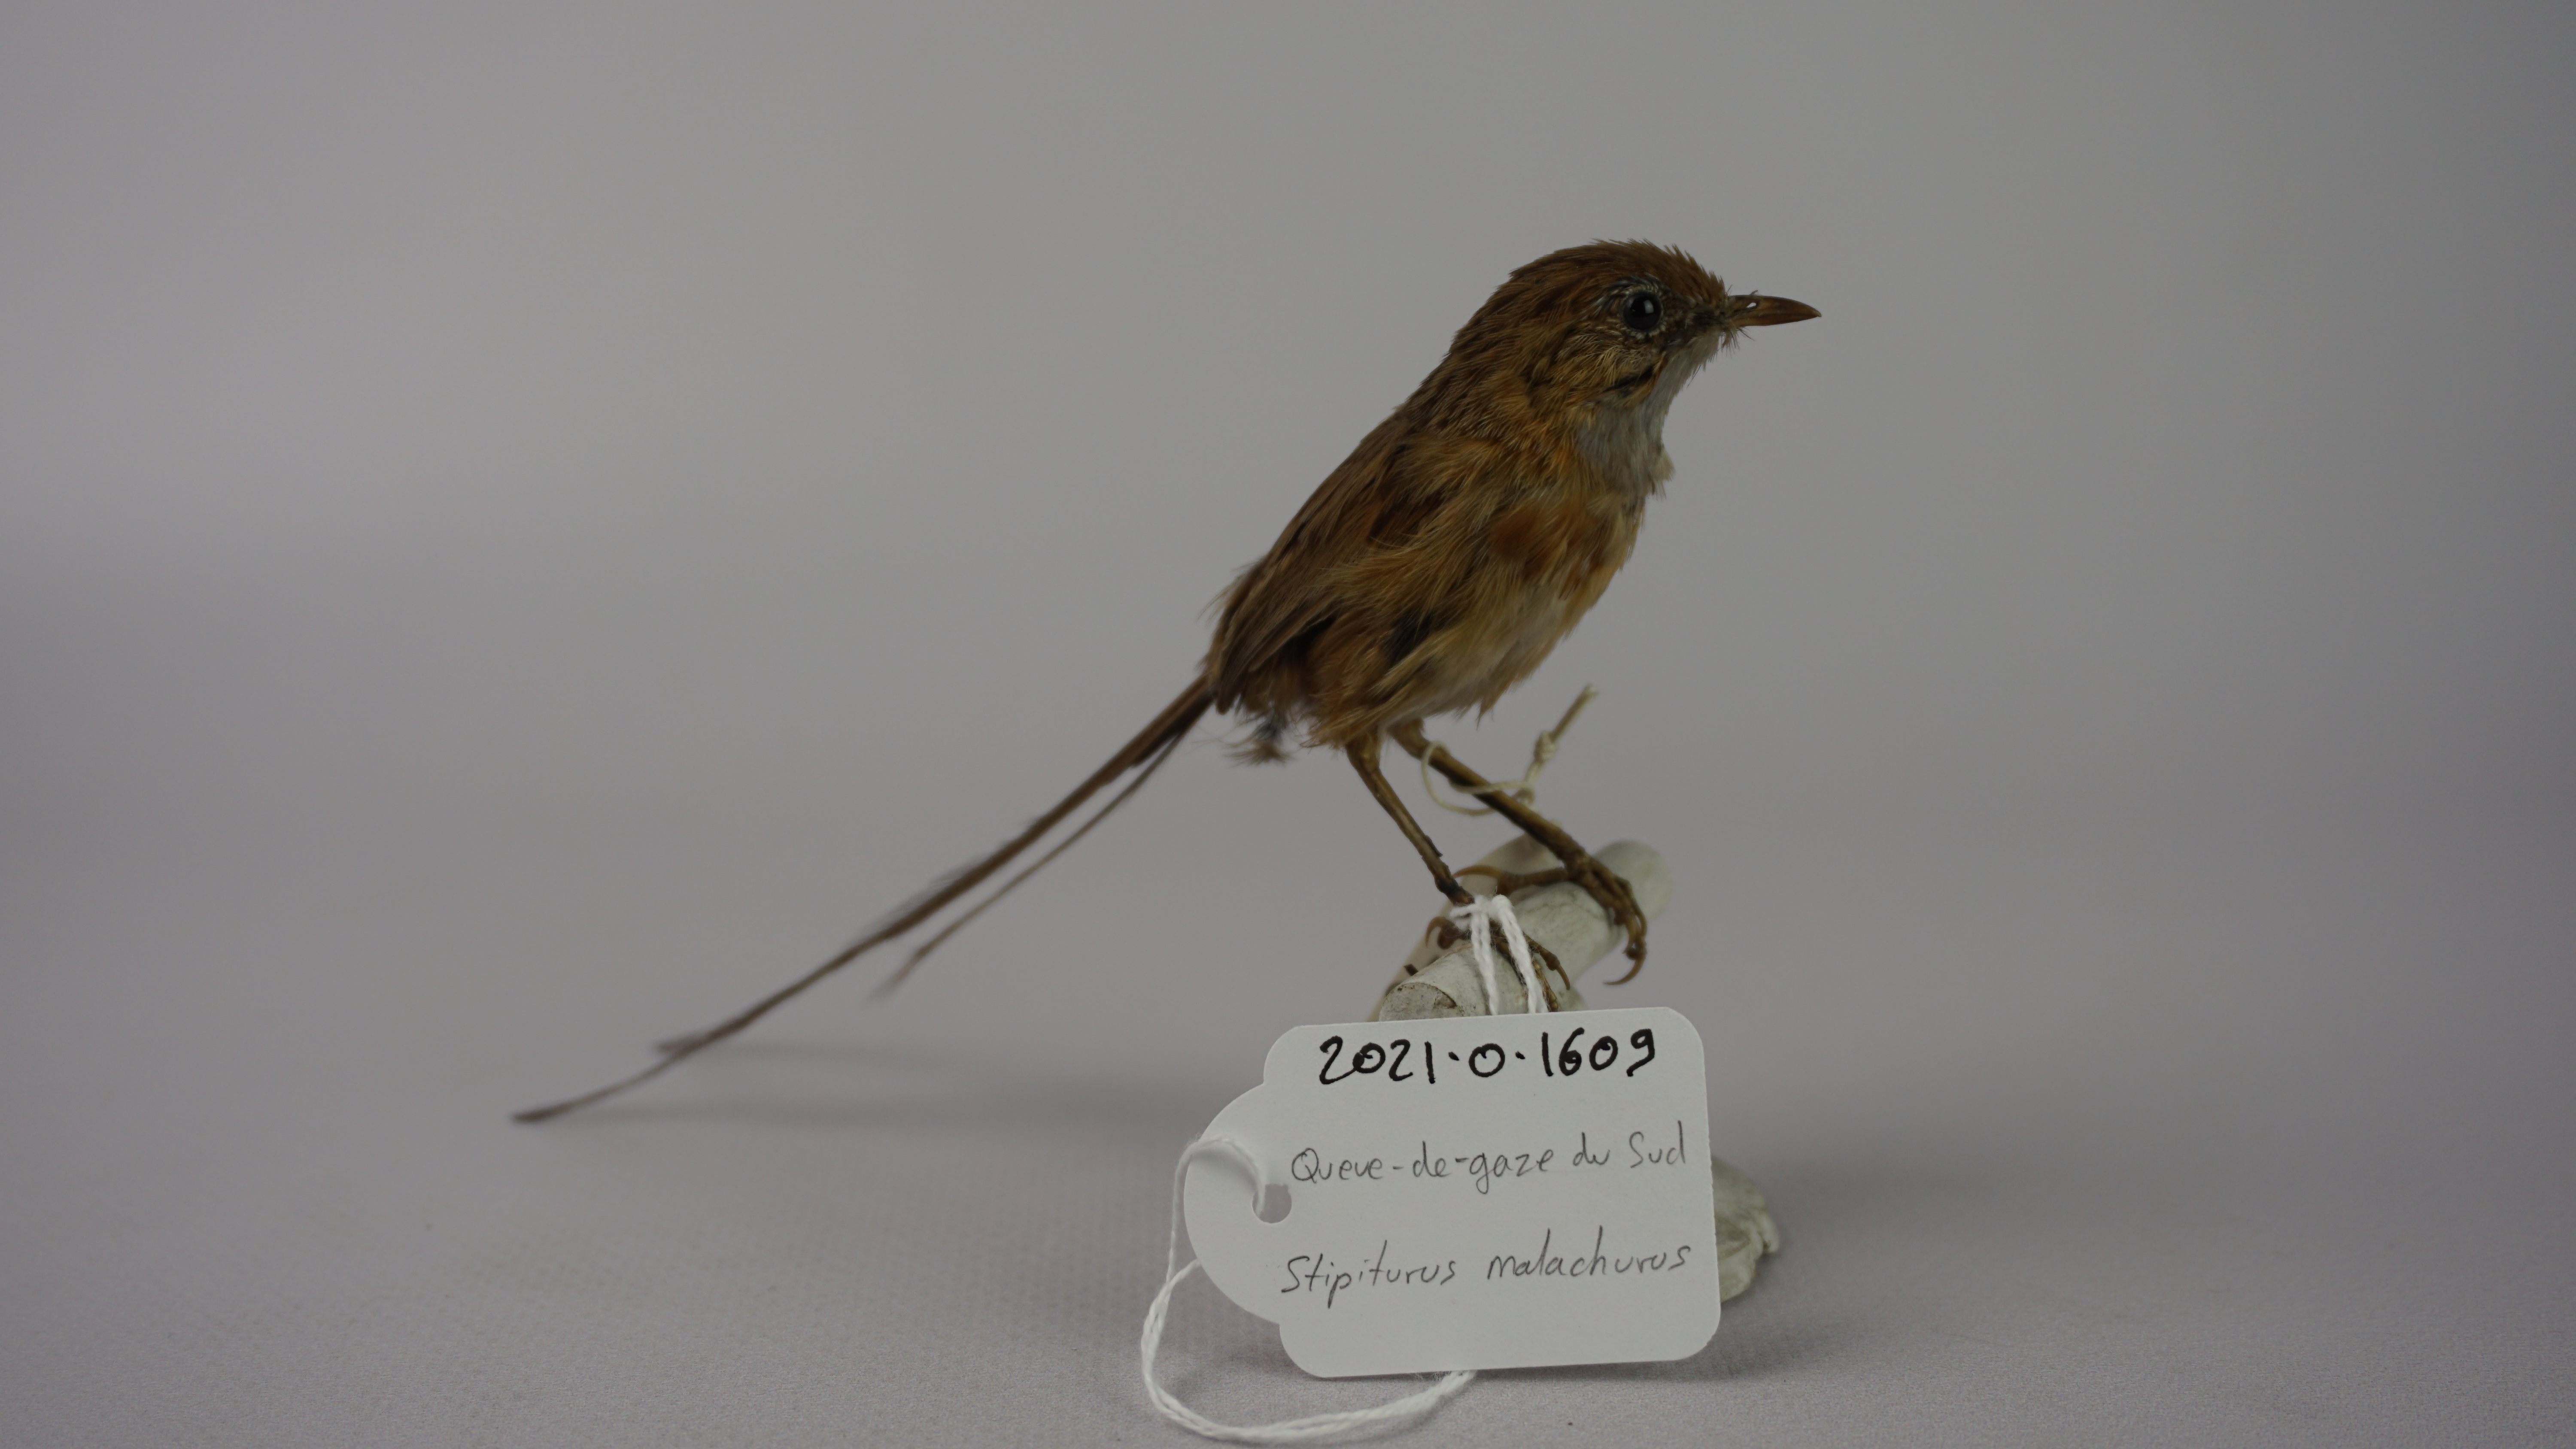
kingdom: Animalia
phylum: Chordata
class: Aves
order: Passeriformes
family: Maluridae
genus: Stipiturus
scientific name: Stipiturus malachurus
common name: Southern emu-wren
